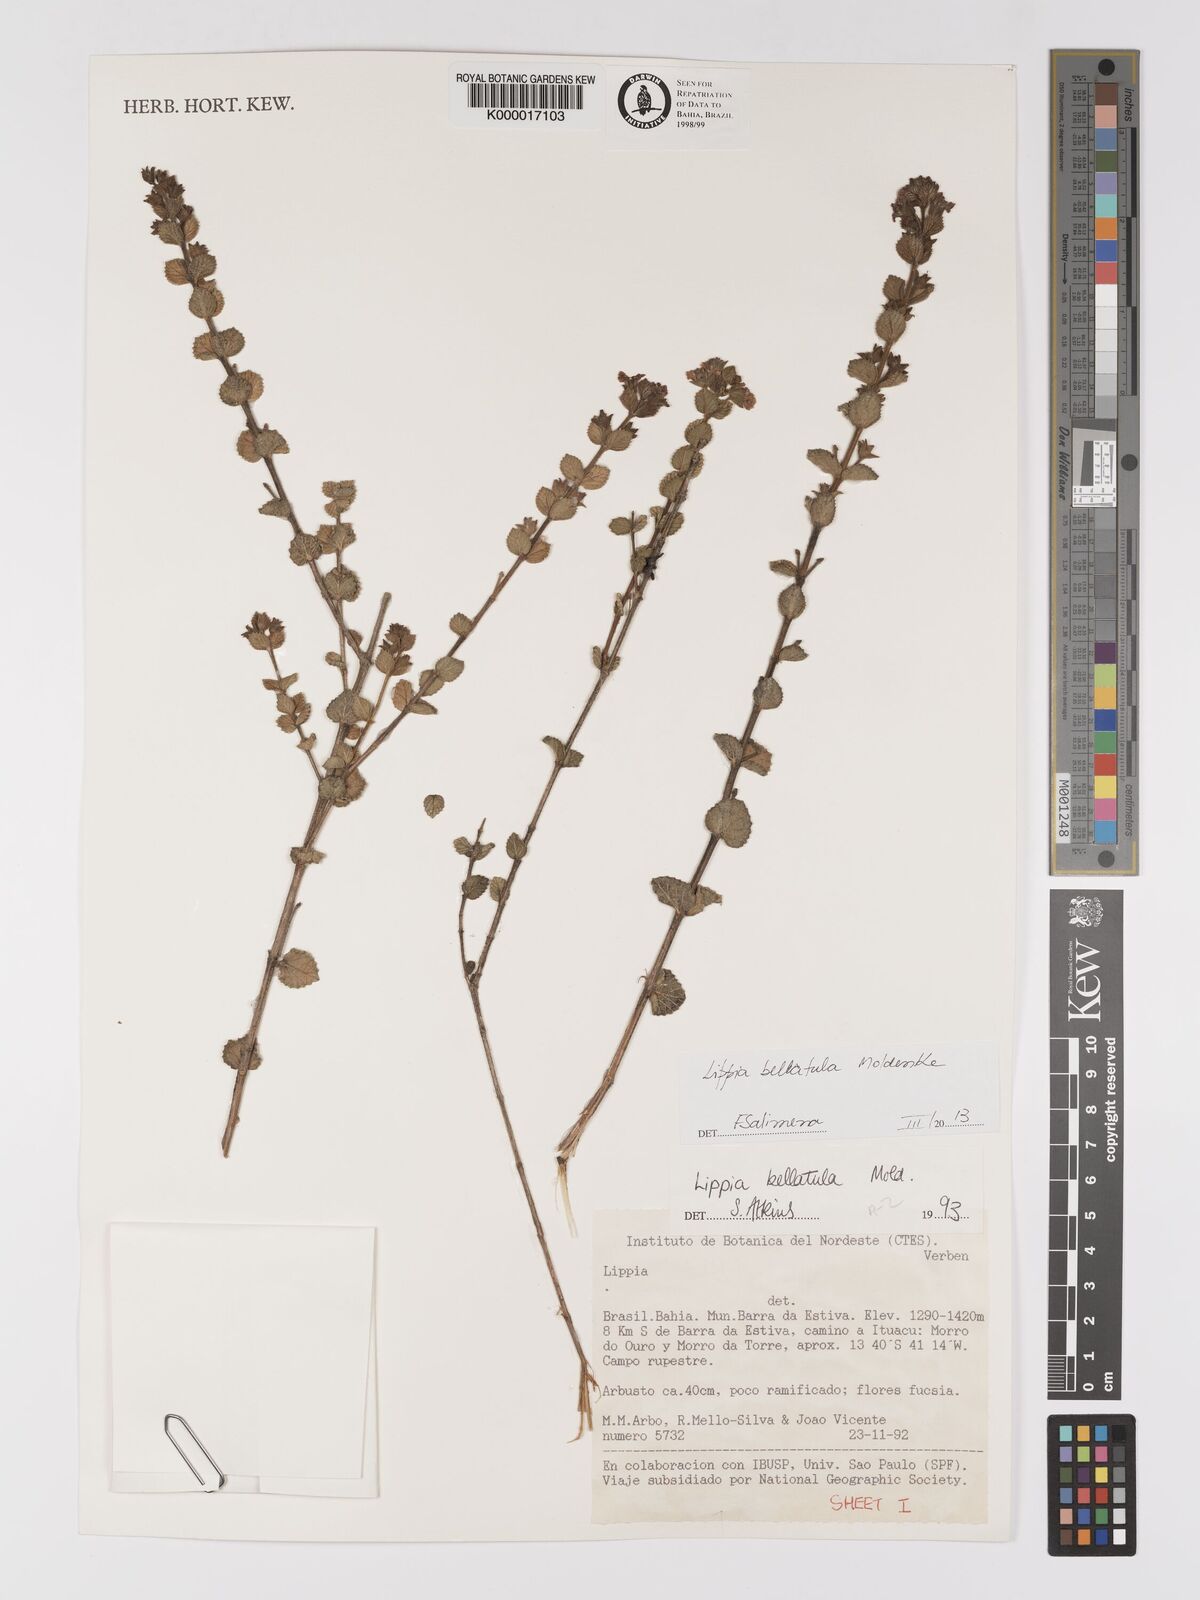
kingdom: Plantae
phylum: Tracheophyta
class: Magnoliopsida
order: Lamiales
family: Verbenaceae
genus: Lippia
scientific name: Lippia bellatula
